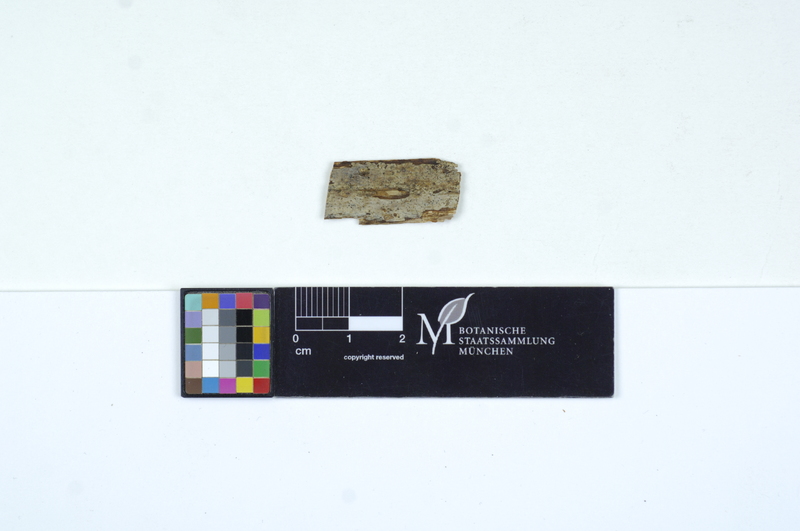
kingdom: Plantae
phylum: Tracheophyta
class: Magnoliopsida
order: Rosales
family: Rosaceae
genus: Rubus
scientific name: Rubus fruticosus
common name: Blackberry, bramble
